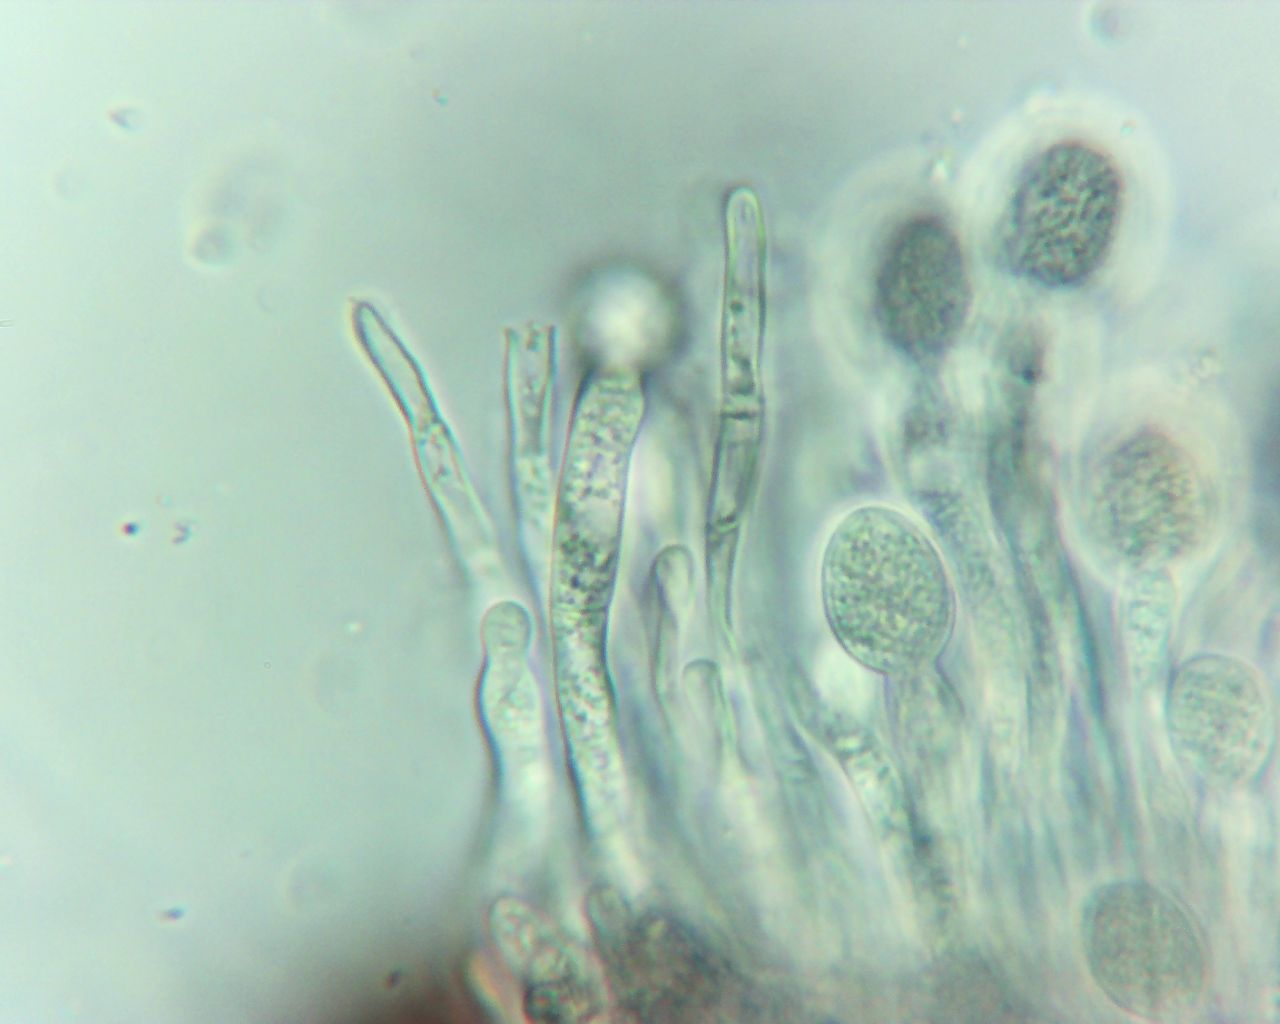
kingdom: Fungi
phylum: Ascomycota
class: Leotiomycetes
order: Rhytismatales
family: Ascodichaenaceae
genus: Ascodichaena
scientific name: Ascodichaena rugosa
